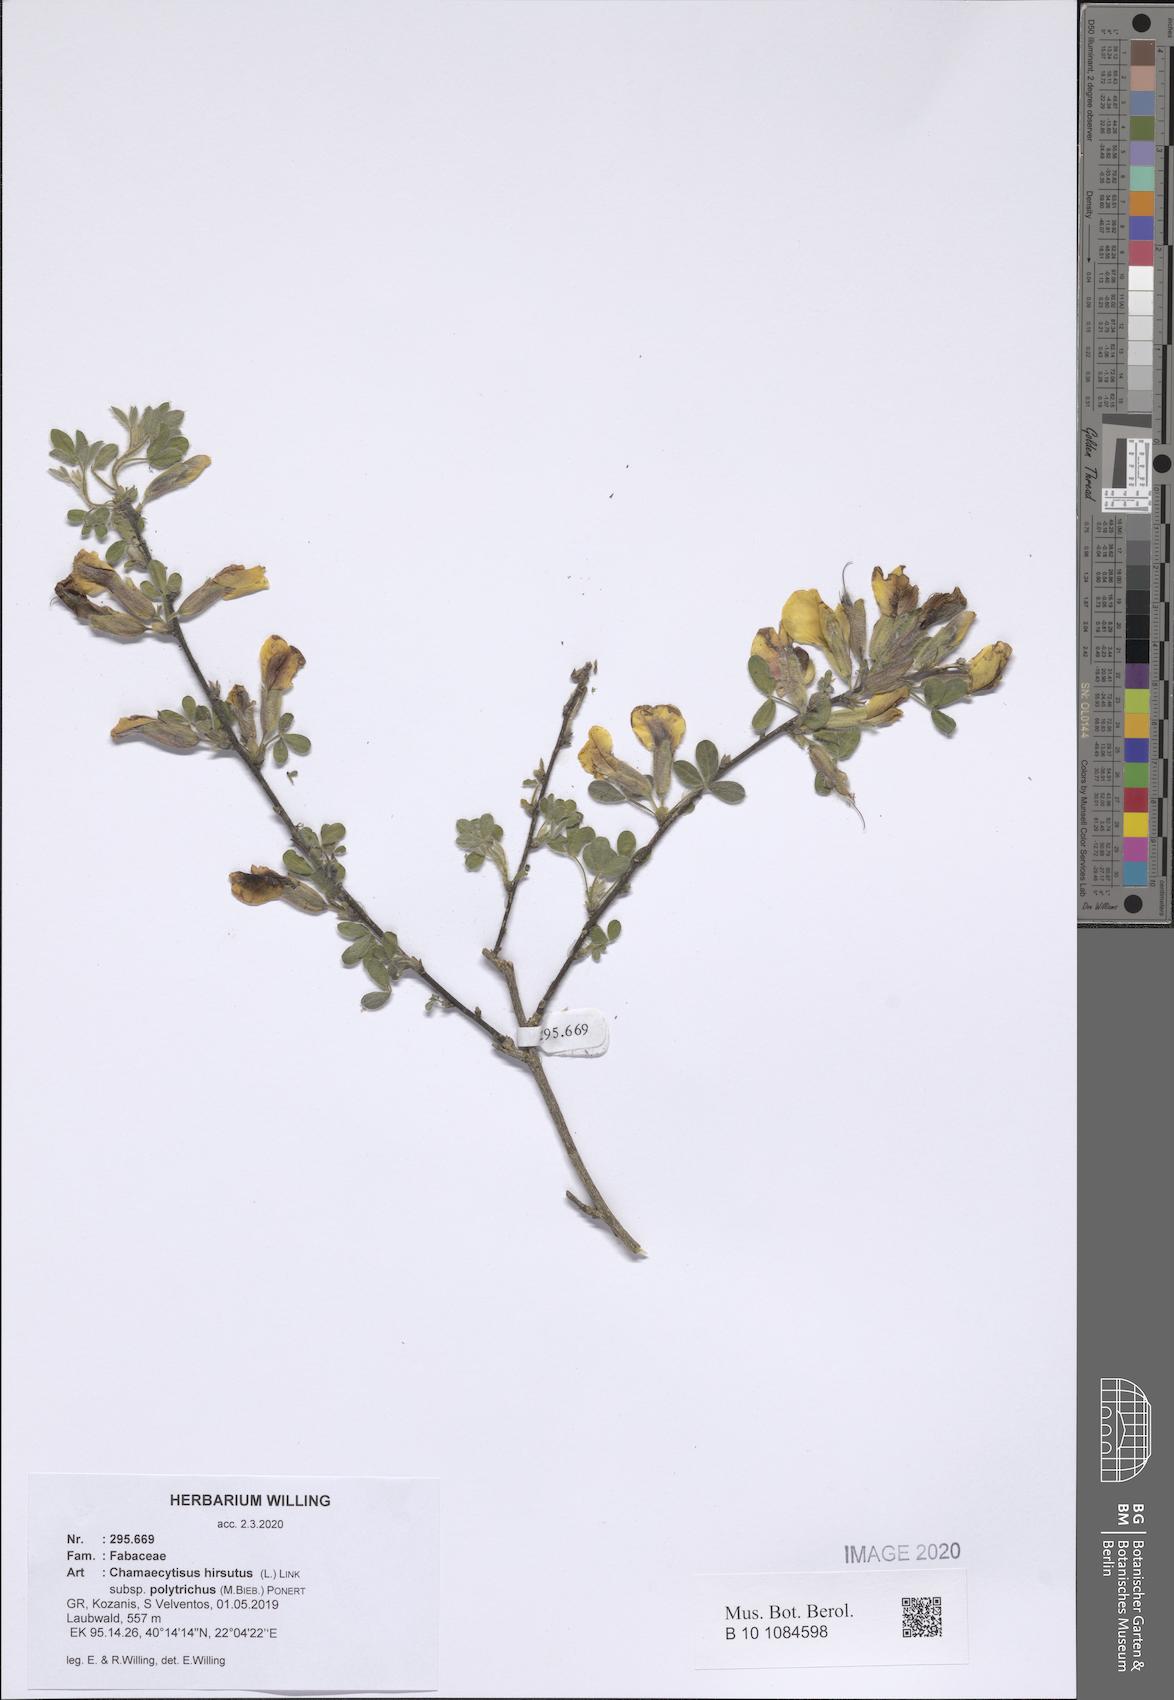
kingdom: Plantae
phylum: Tracheophyta
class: Magnoliopsida
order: Fabales
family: Fabaceae
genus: Chamaecytisus
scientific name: Chamaecytisus hirsutus
